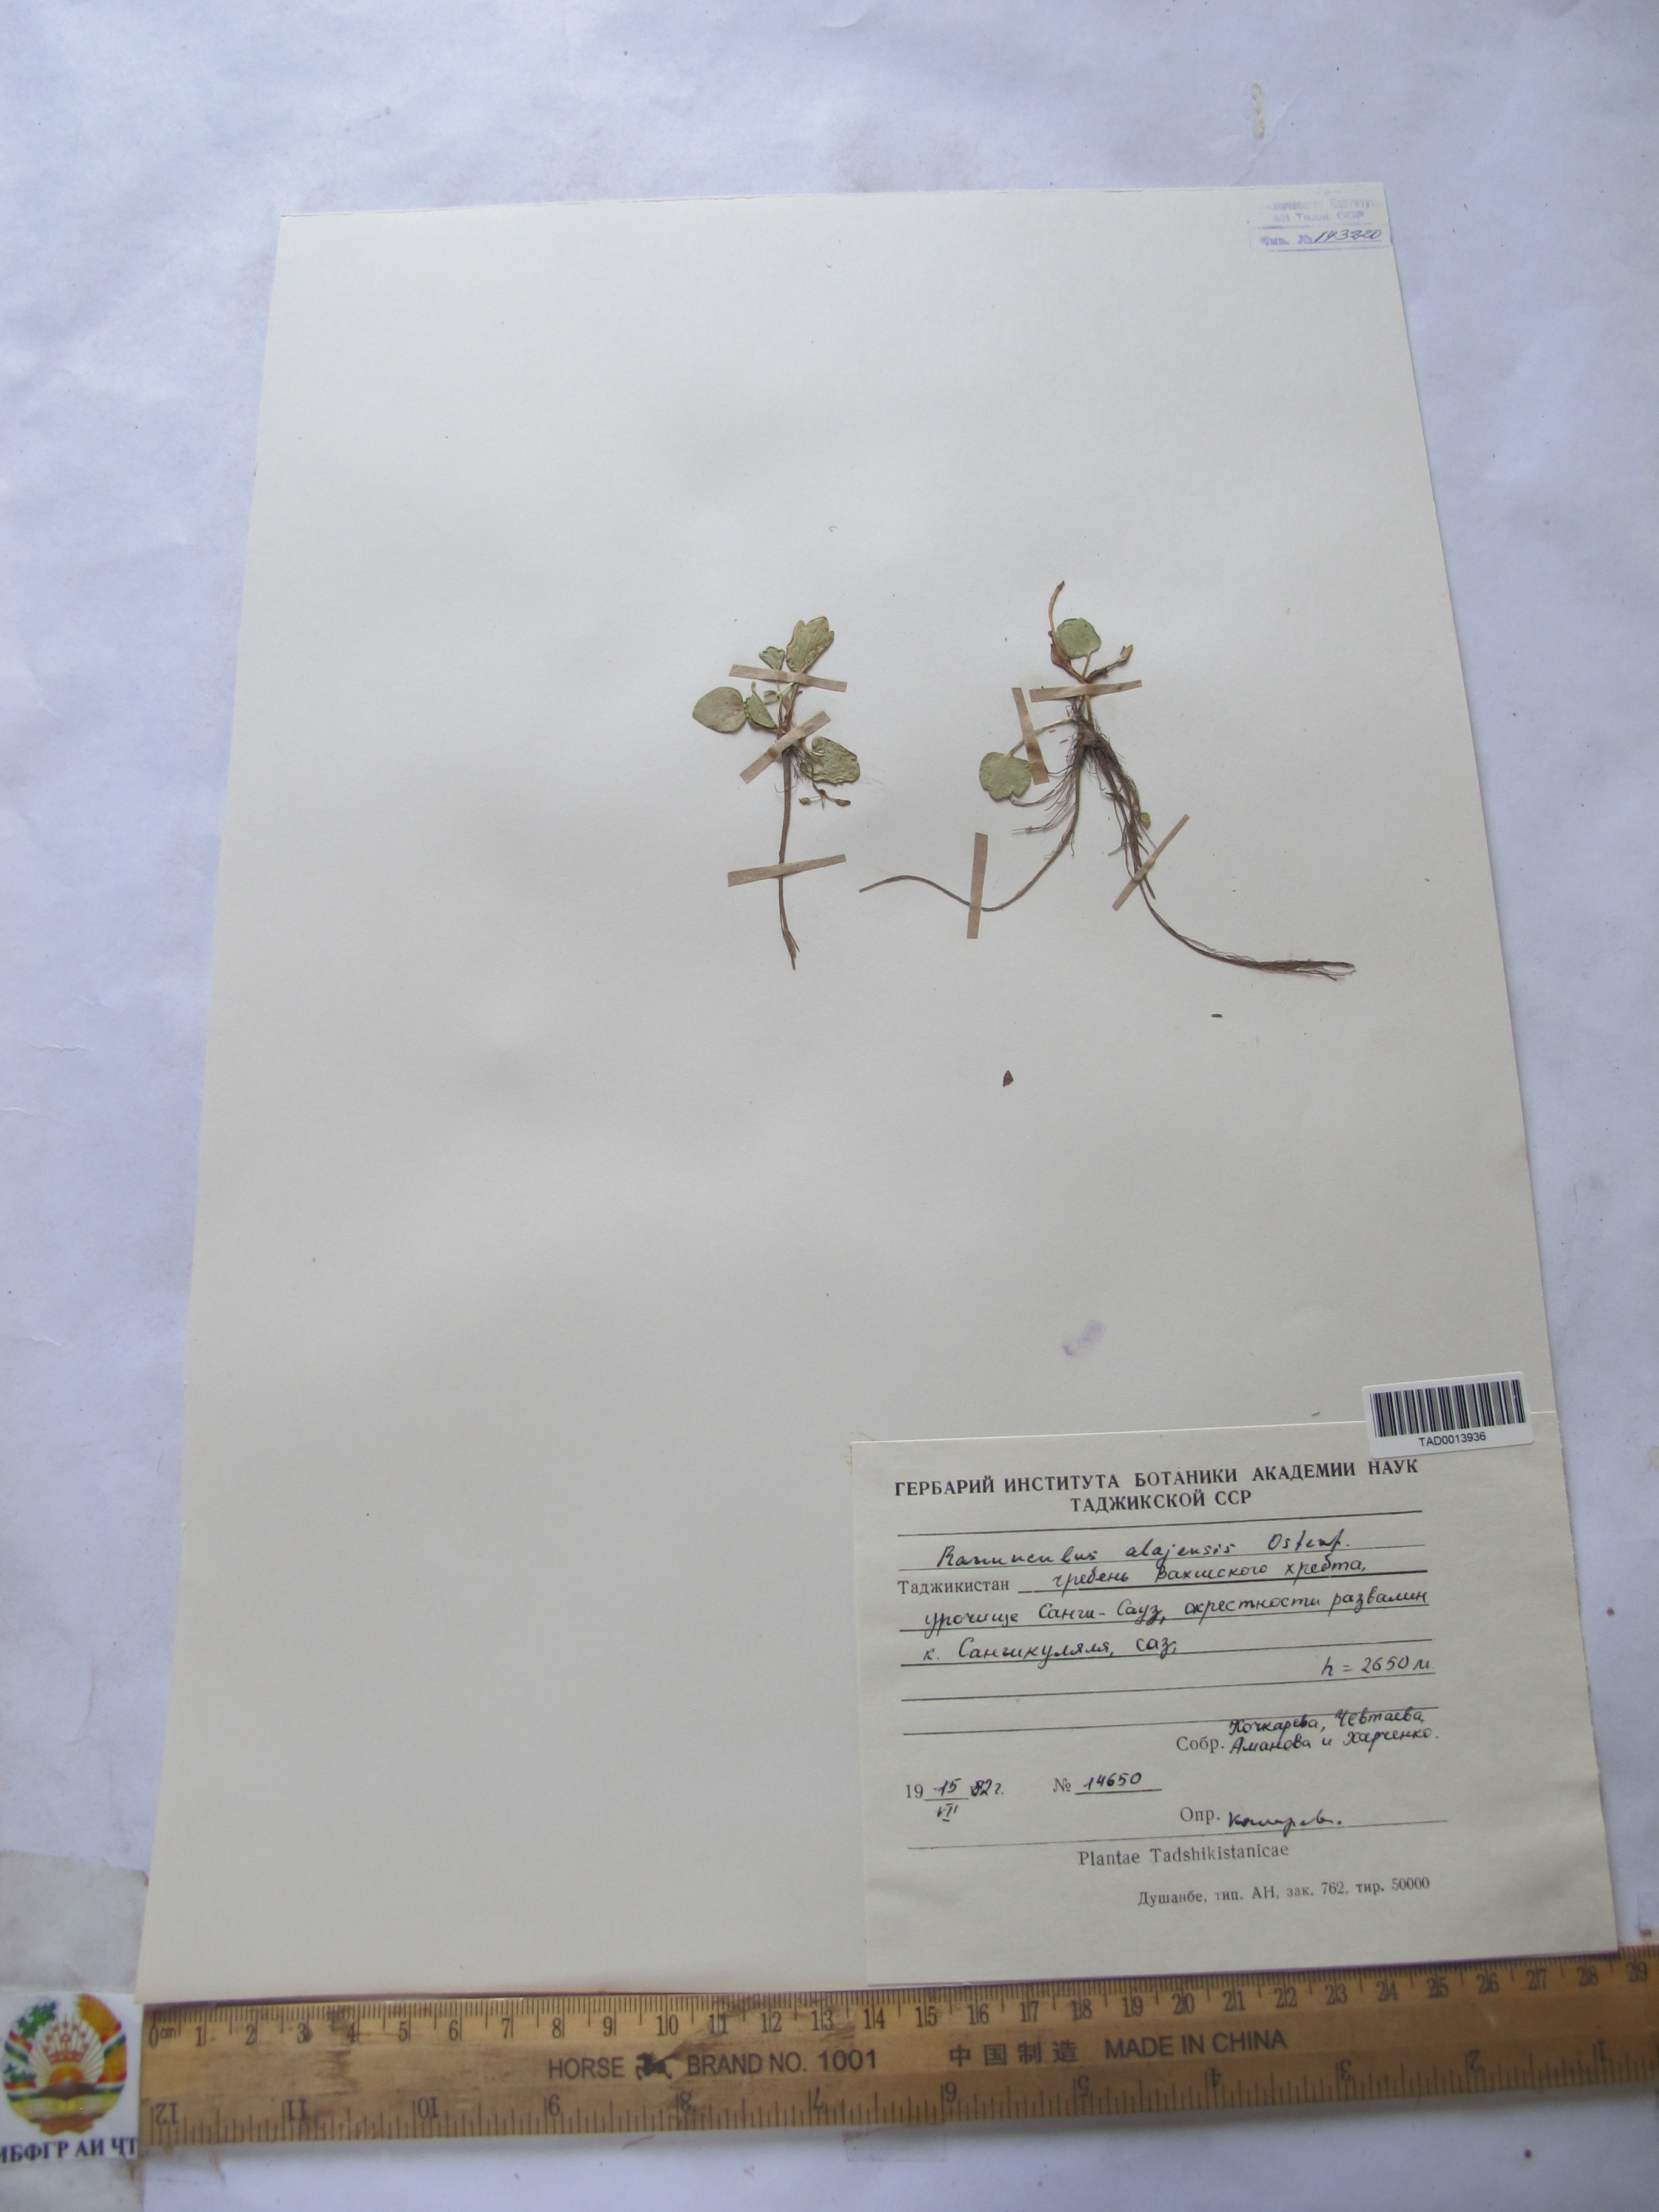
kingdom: Plantae
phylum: Tracheophyta
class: Magnoliopsida
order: Ranunculales
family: Ranunculaceae
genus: Ranunculus
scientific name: Ranunculus alaiensis
